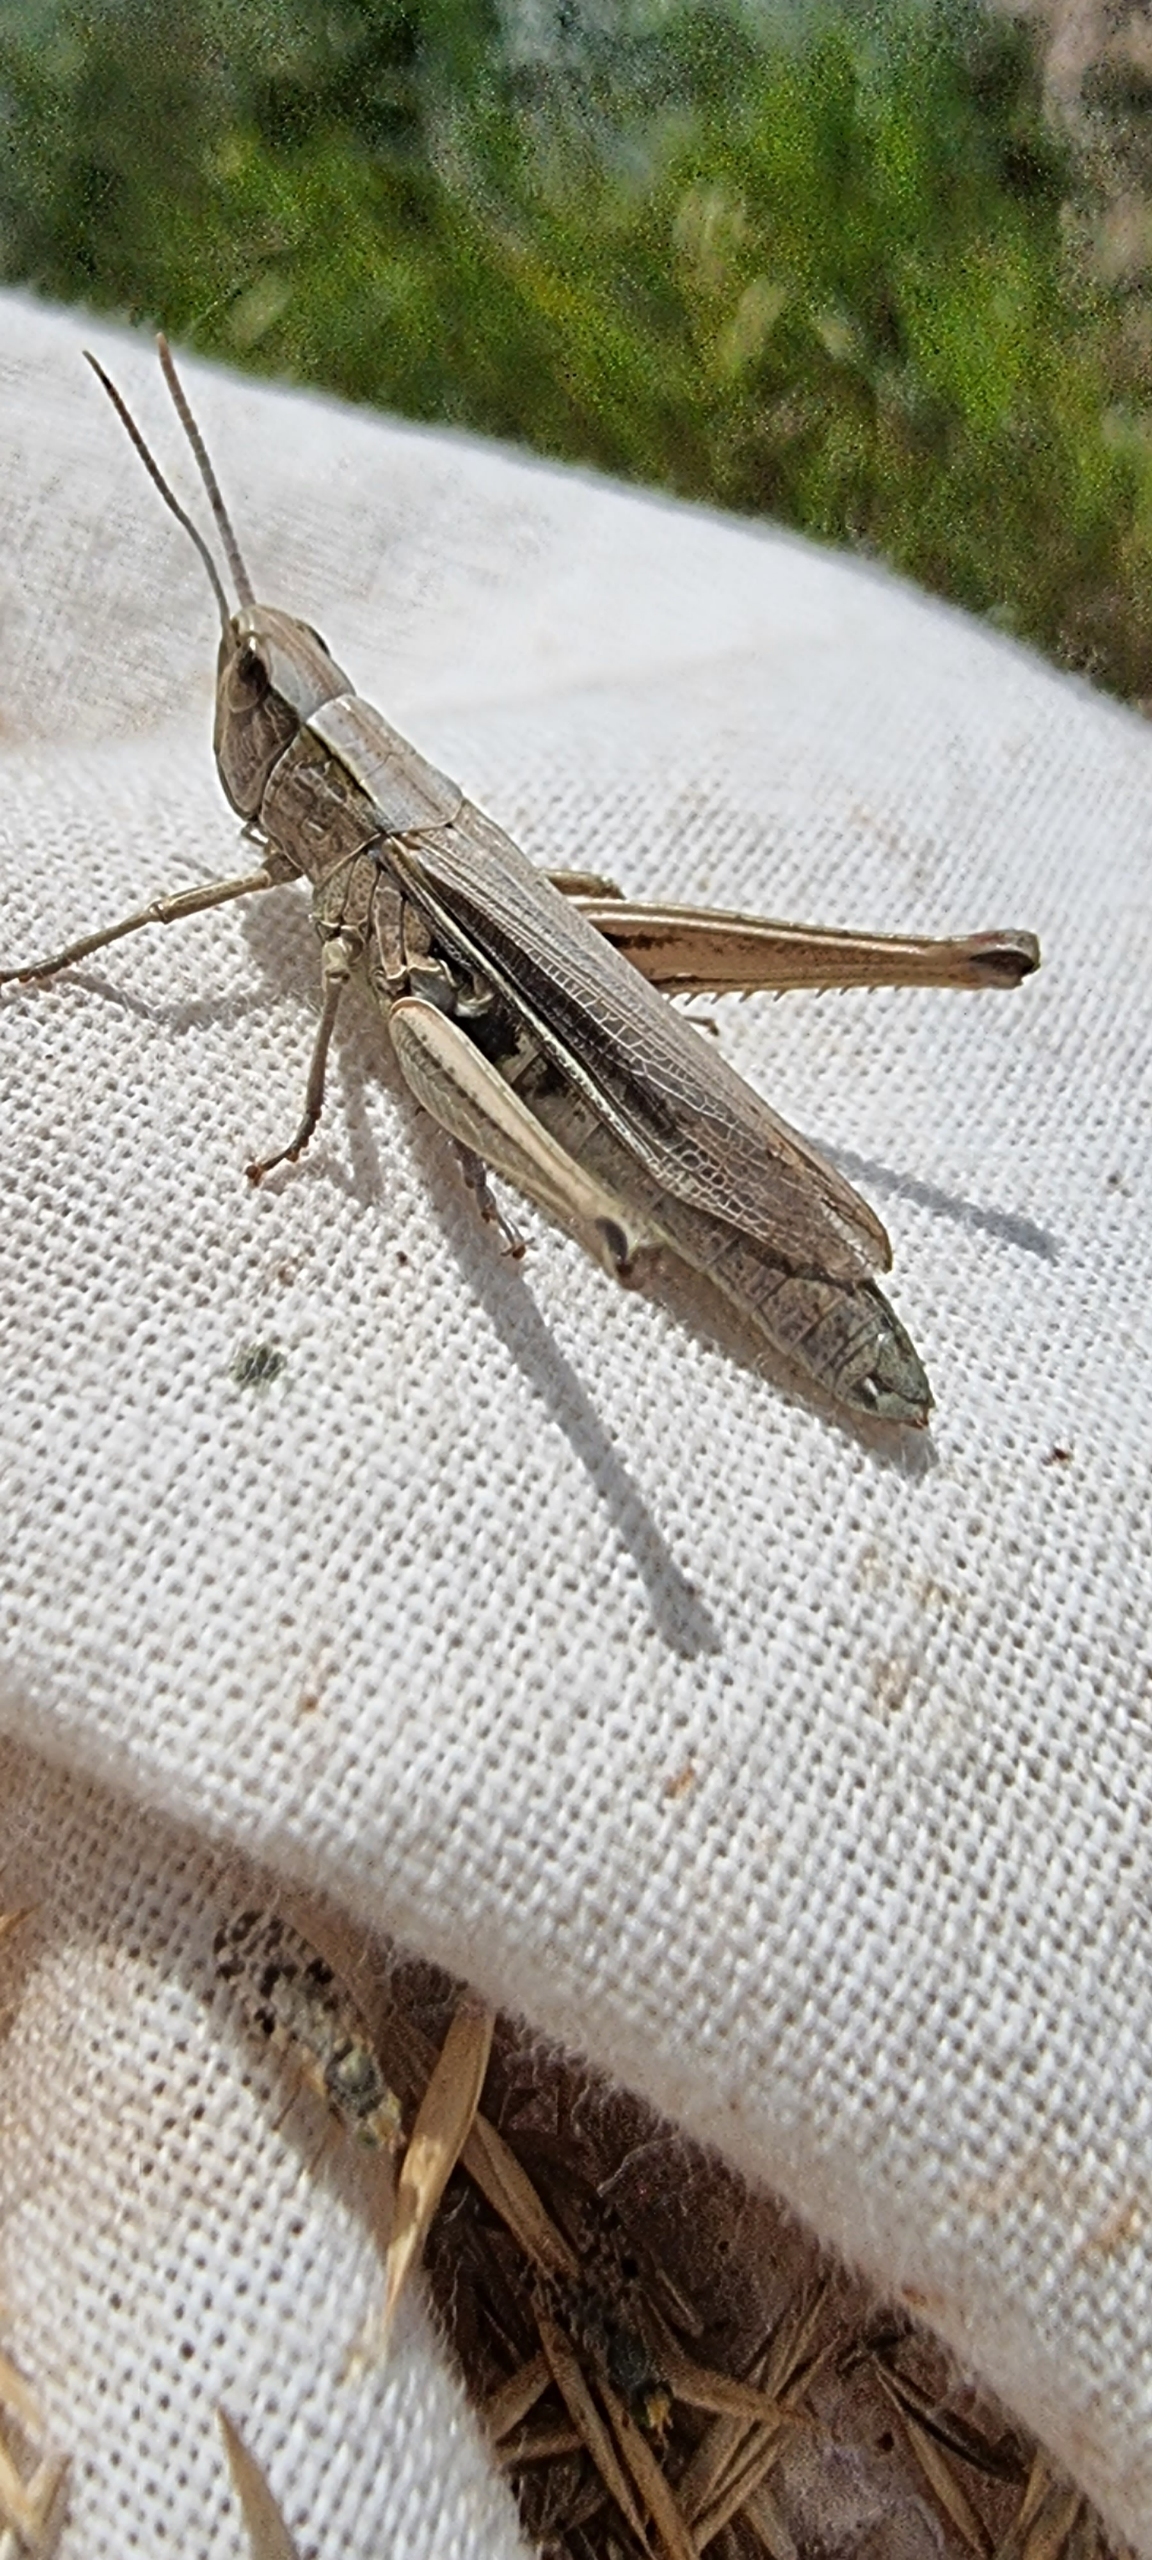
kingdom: Animalia
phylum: Arthropoda
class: Insecta
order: Orthoptera
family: Acrididae
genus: Chorthippus
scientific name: Chorthippus albomarginatus
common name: Strandengsgræshoppe
